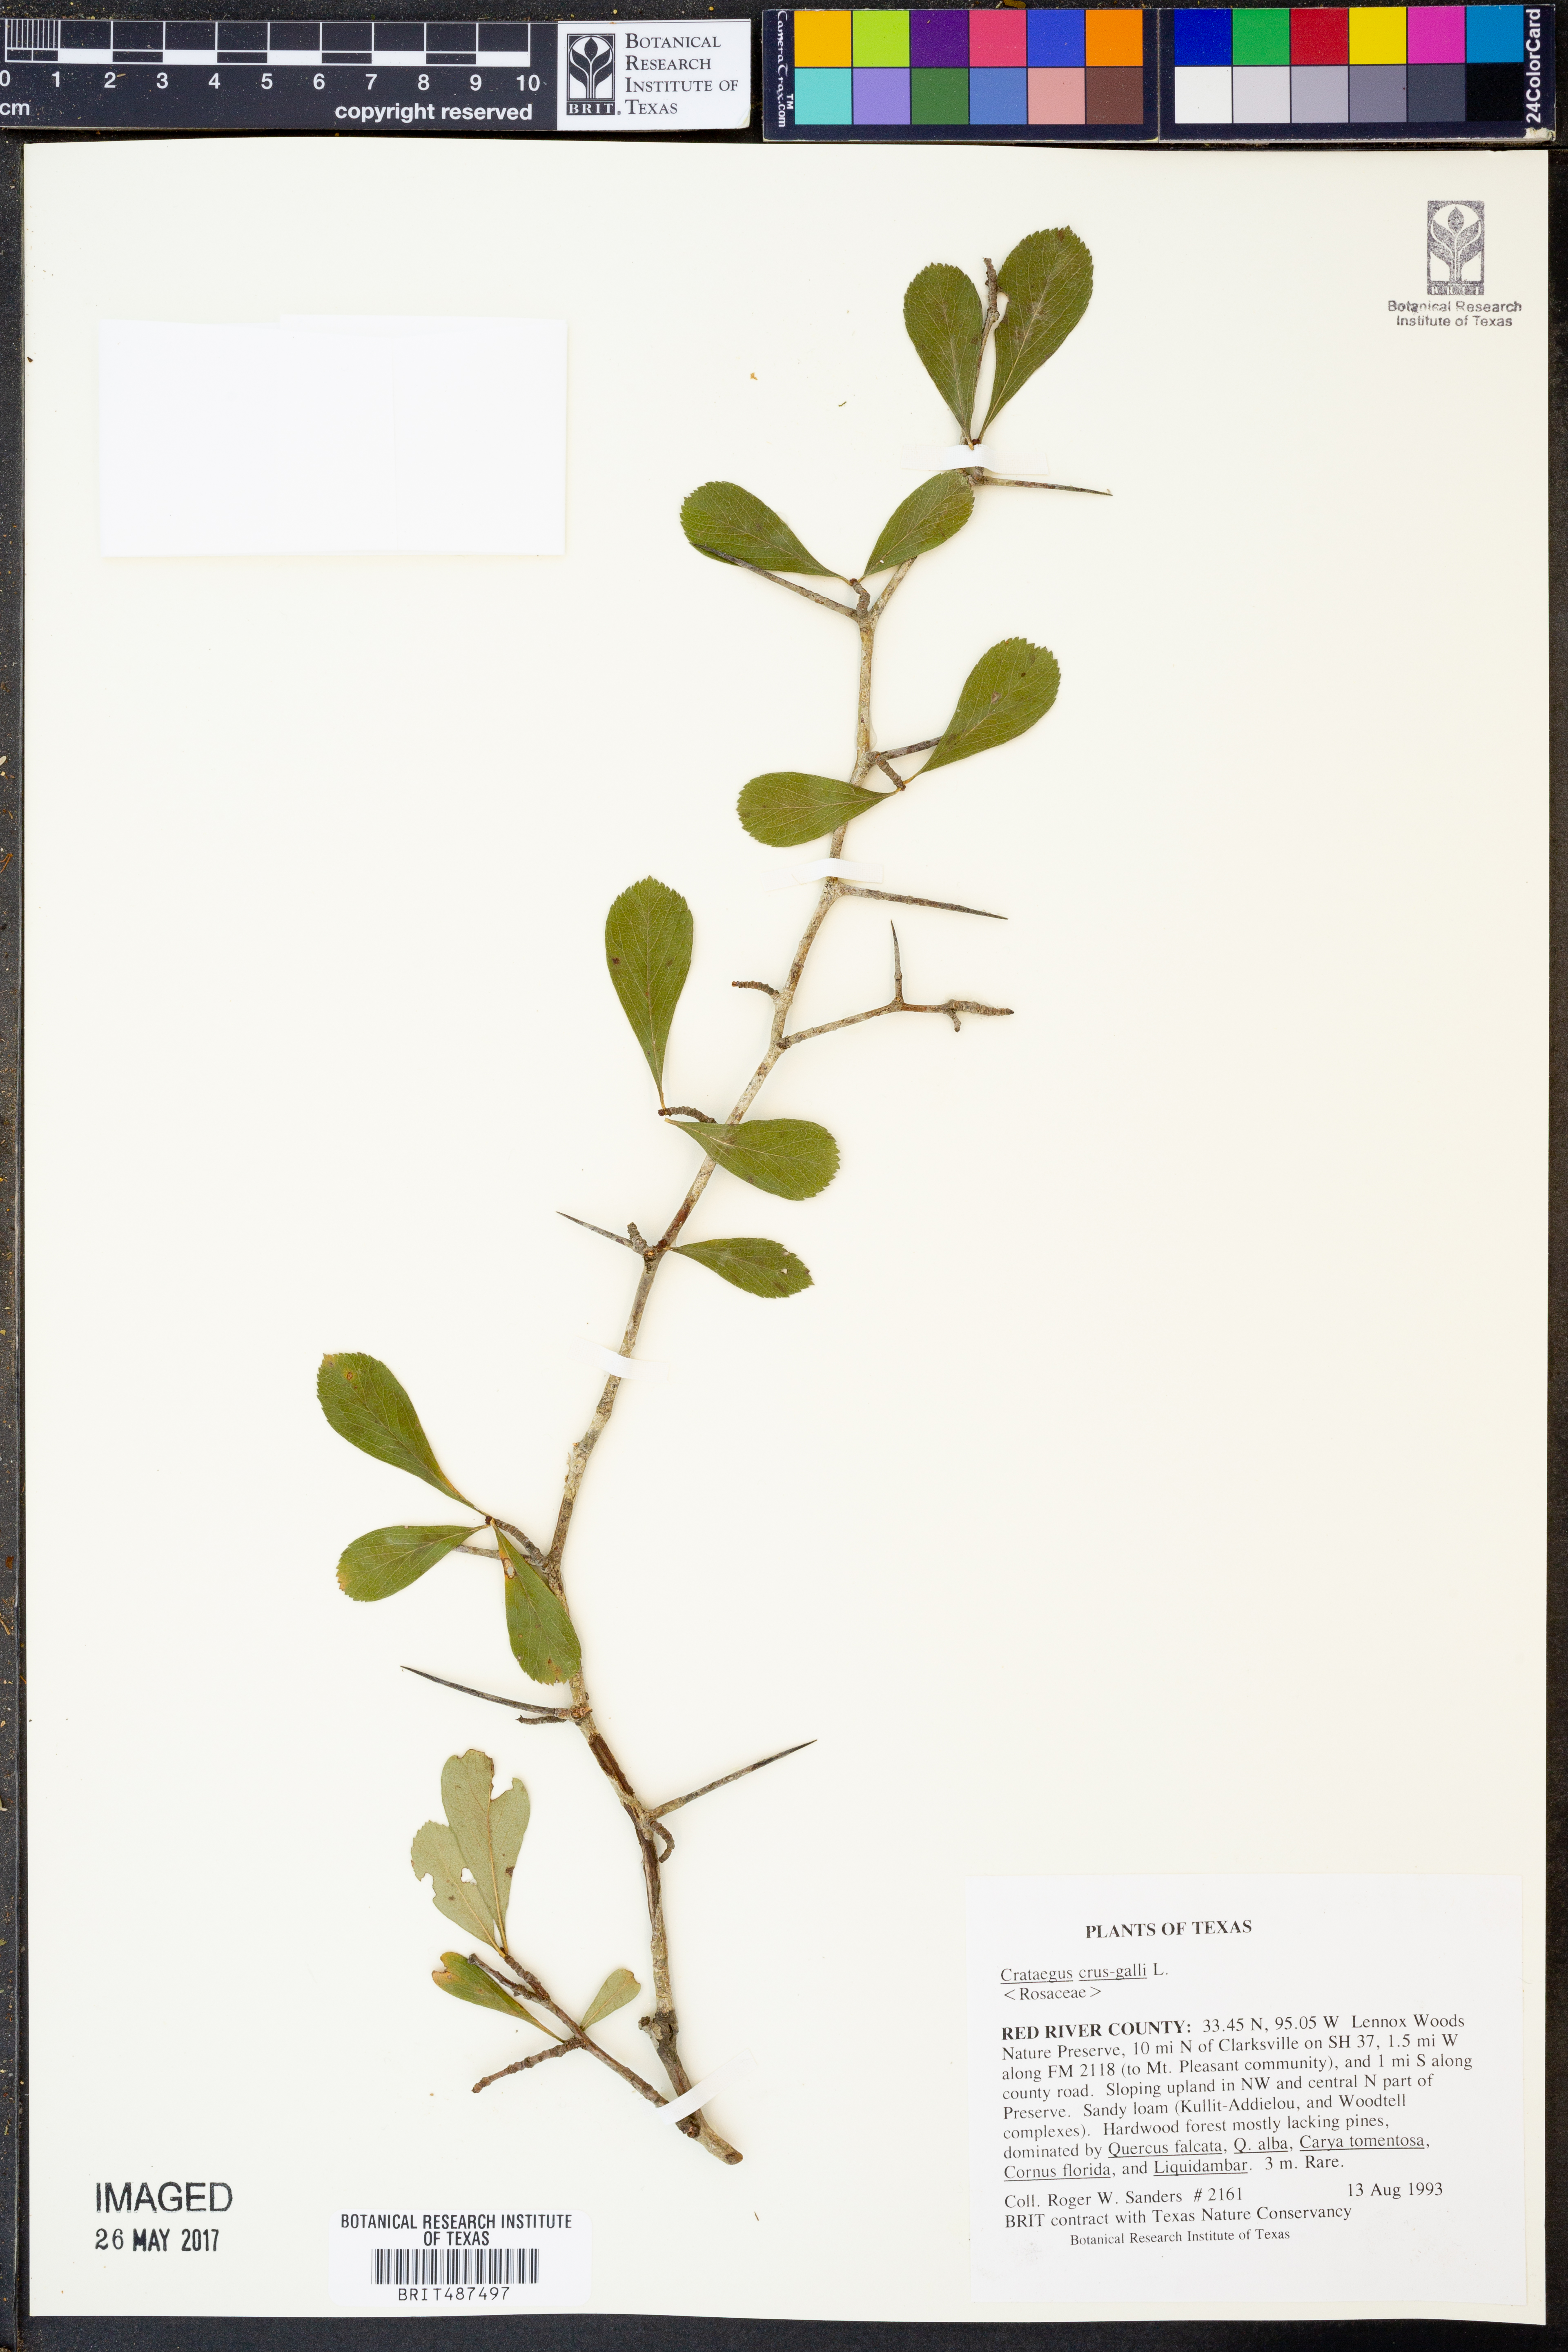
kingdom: Plantae
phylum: Tracheophyta
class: Magnoliopsida
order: Rosales
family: Rosaceae
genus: Crataegus
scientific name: Crataegus crus-galli
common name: Cockspurthorn
